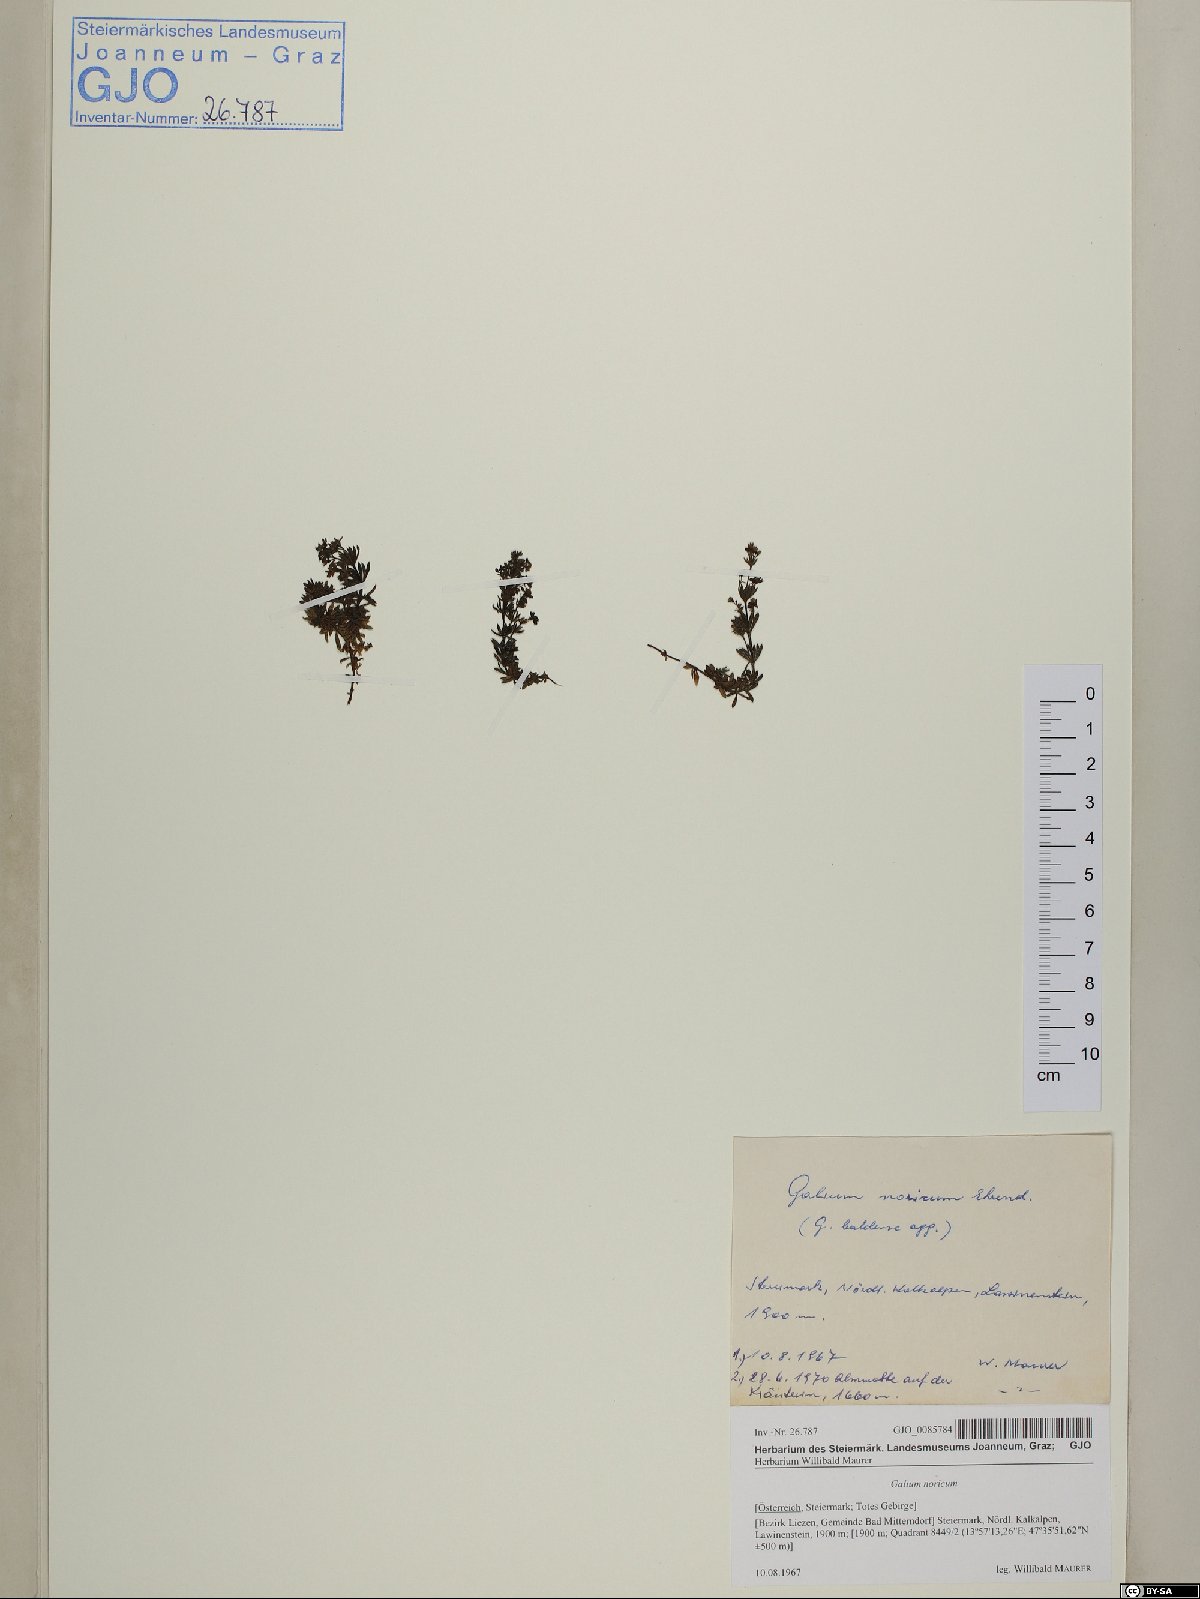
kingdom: Plantae
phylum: Tracheophyta
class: Magnoliopsida
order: Gentianales
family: Rubiaceae
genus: Galium
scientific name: Galium noricum
